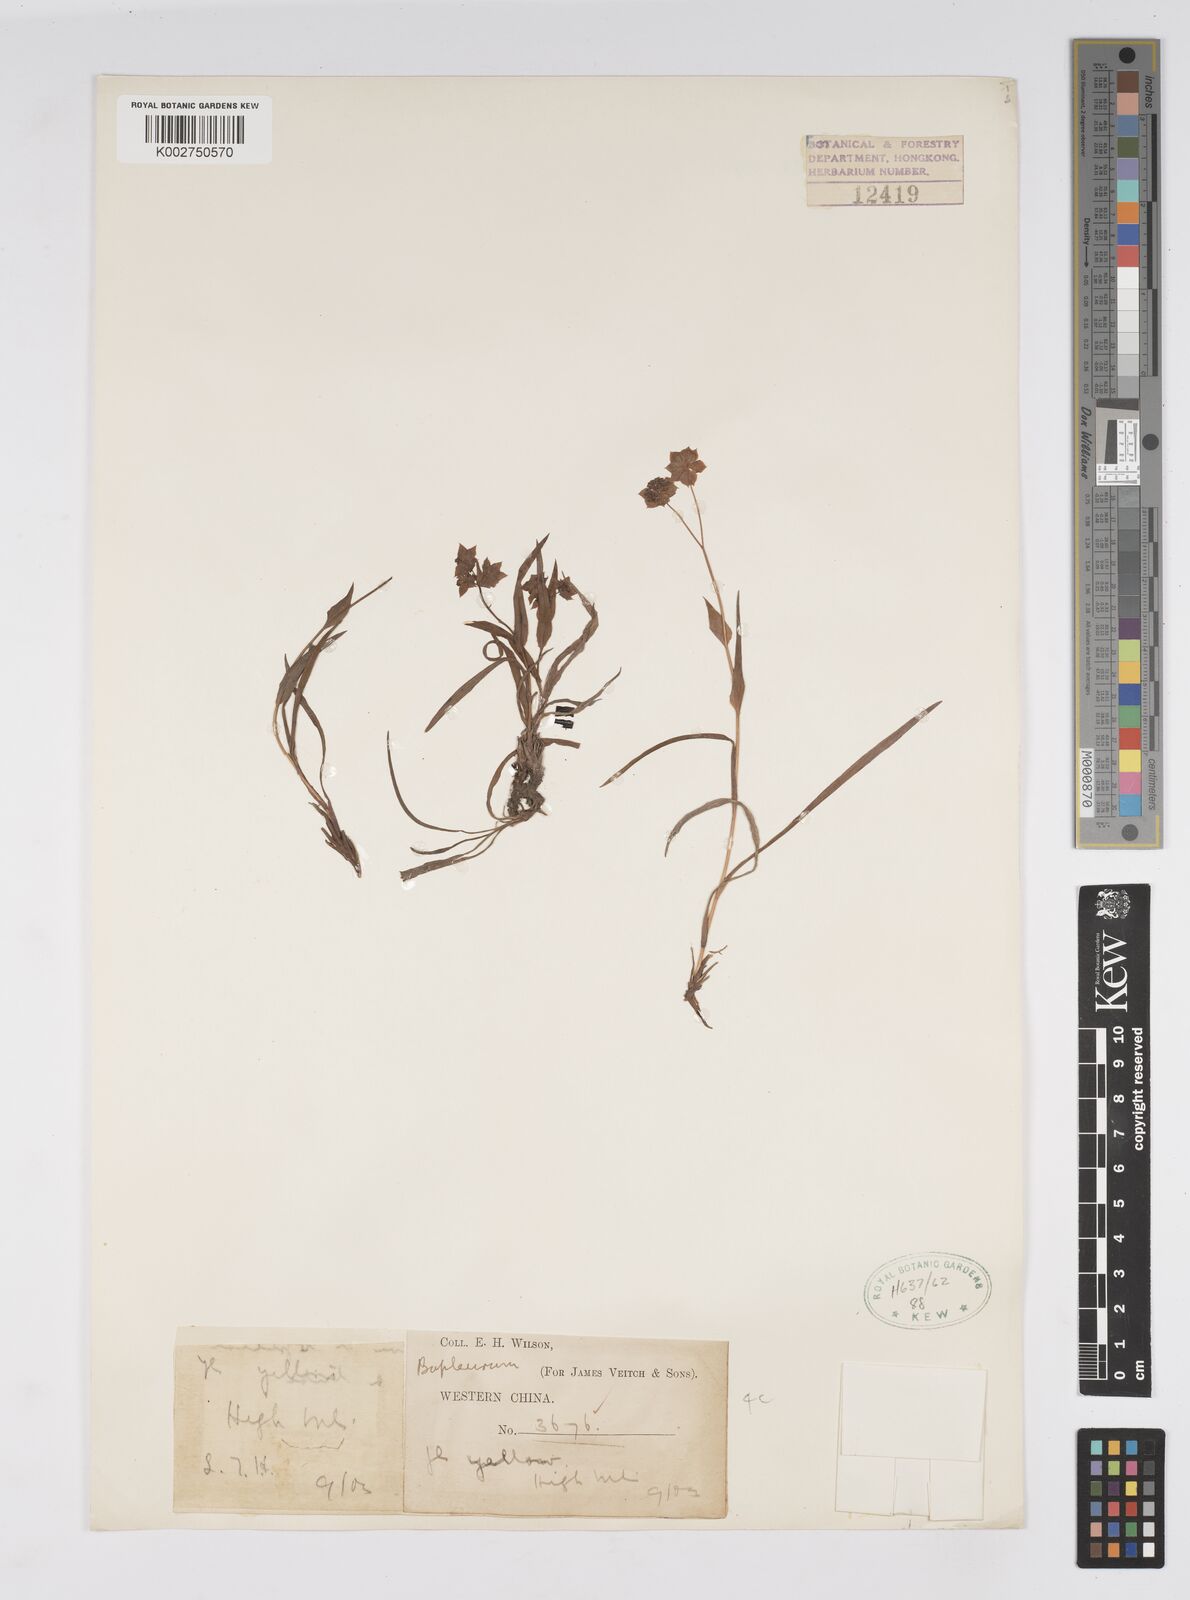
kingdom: Plantae
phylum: Tracheophyta
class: Magnoliopsida
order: Apiales
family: Apiaceae
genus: Bupleurum
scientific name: Bupleurum
